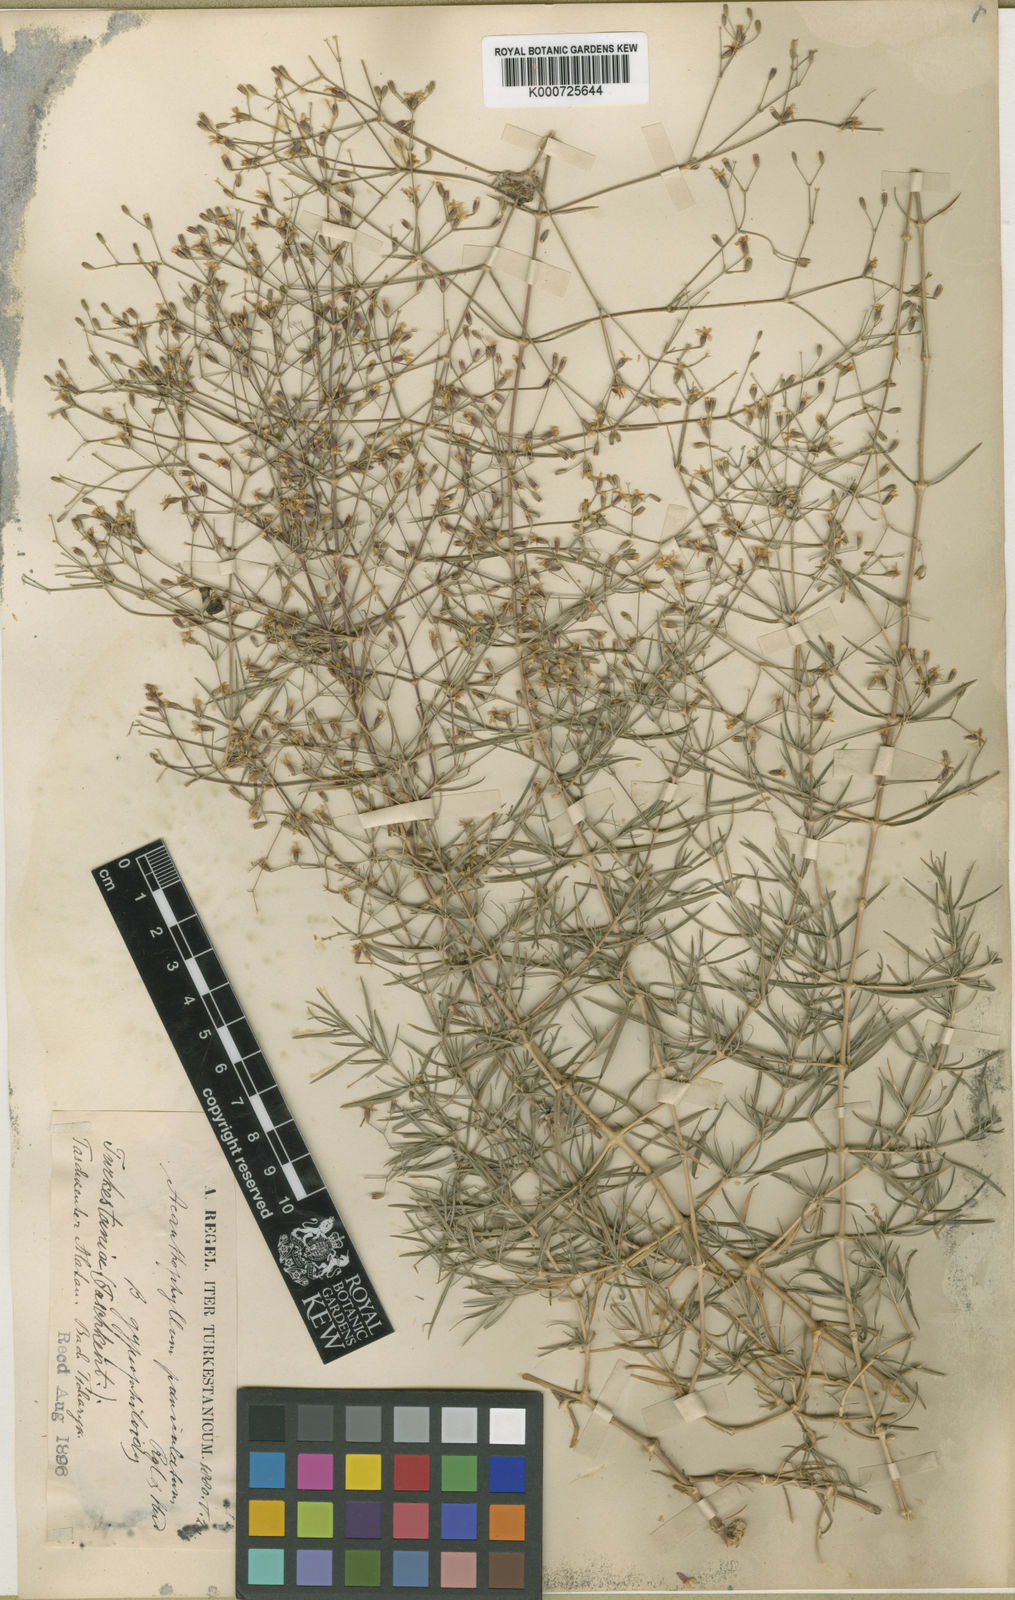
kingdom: Plantae
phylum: Tracheophyta
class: Magnoliopsida
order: Caryophyllales
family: Caryophyllaceae
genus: Acanthophyllum
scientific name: Acanthophyllum gypsophiloides
